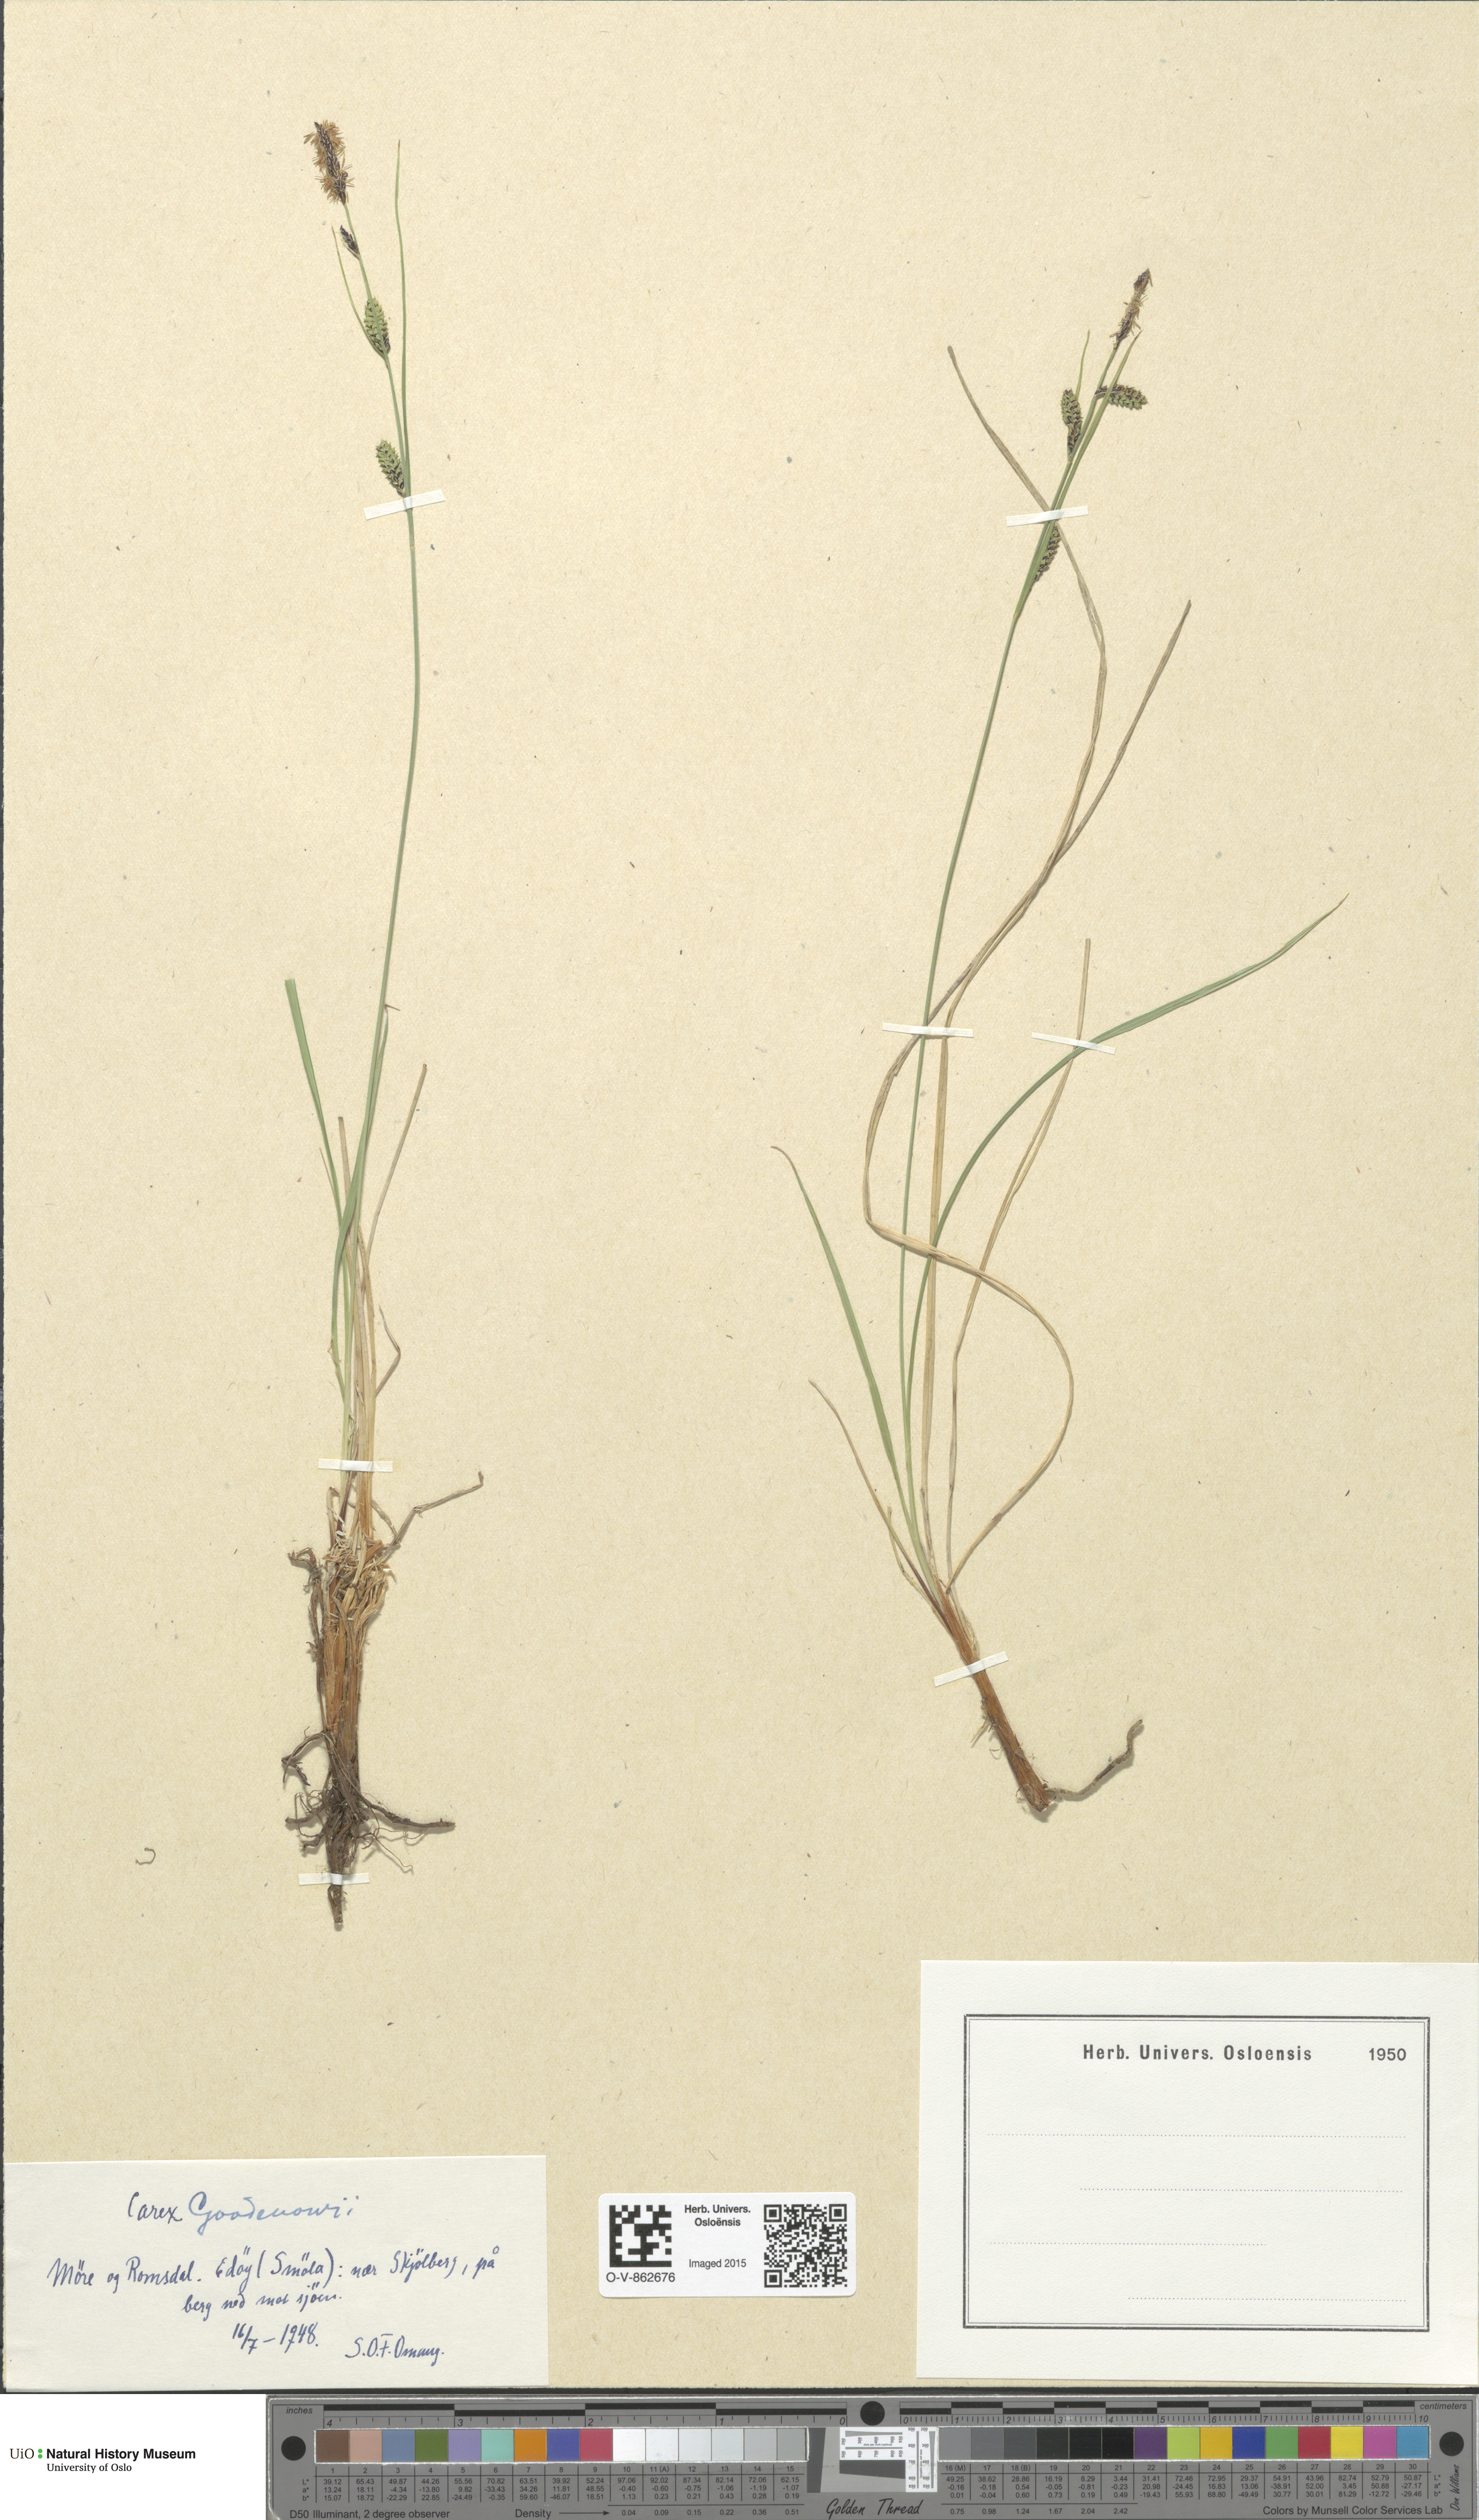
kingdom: Plantae
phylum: Tracheophyta
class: Liliopsida
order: Poales
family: Cyperaceae
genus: Carex
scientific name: Carex nigra
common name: Common sedge
